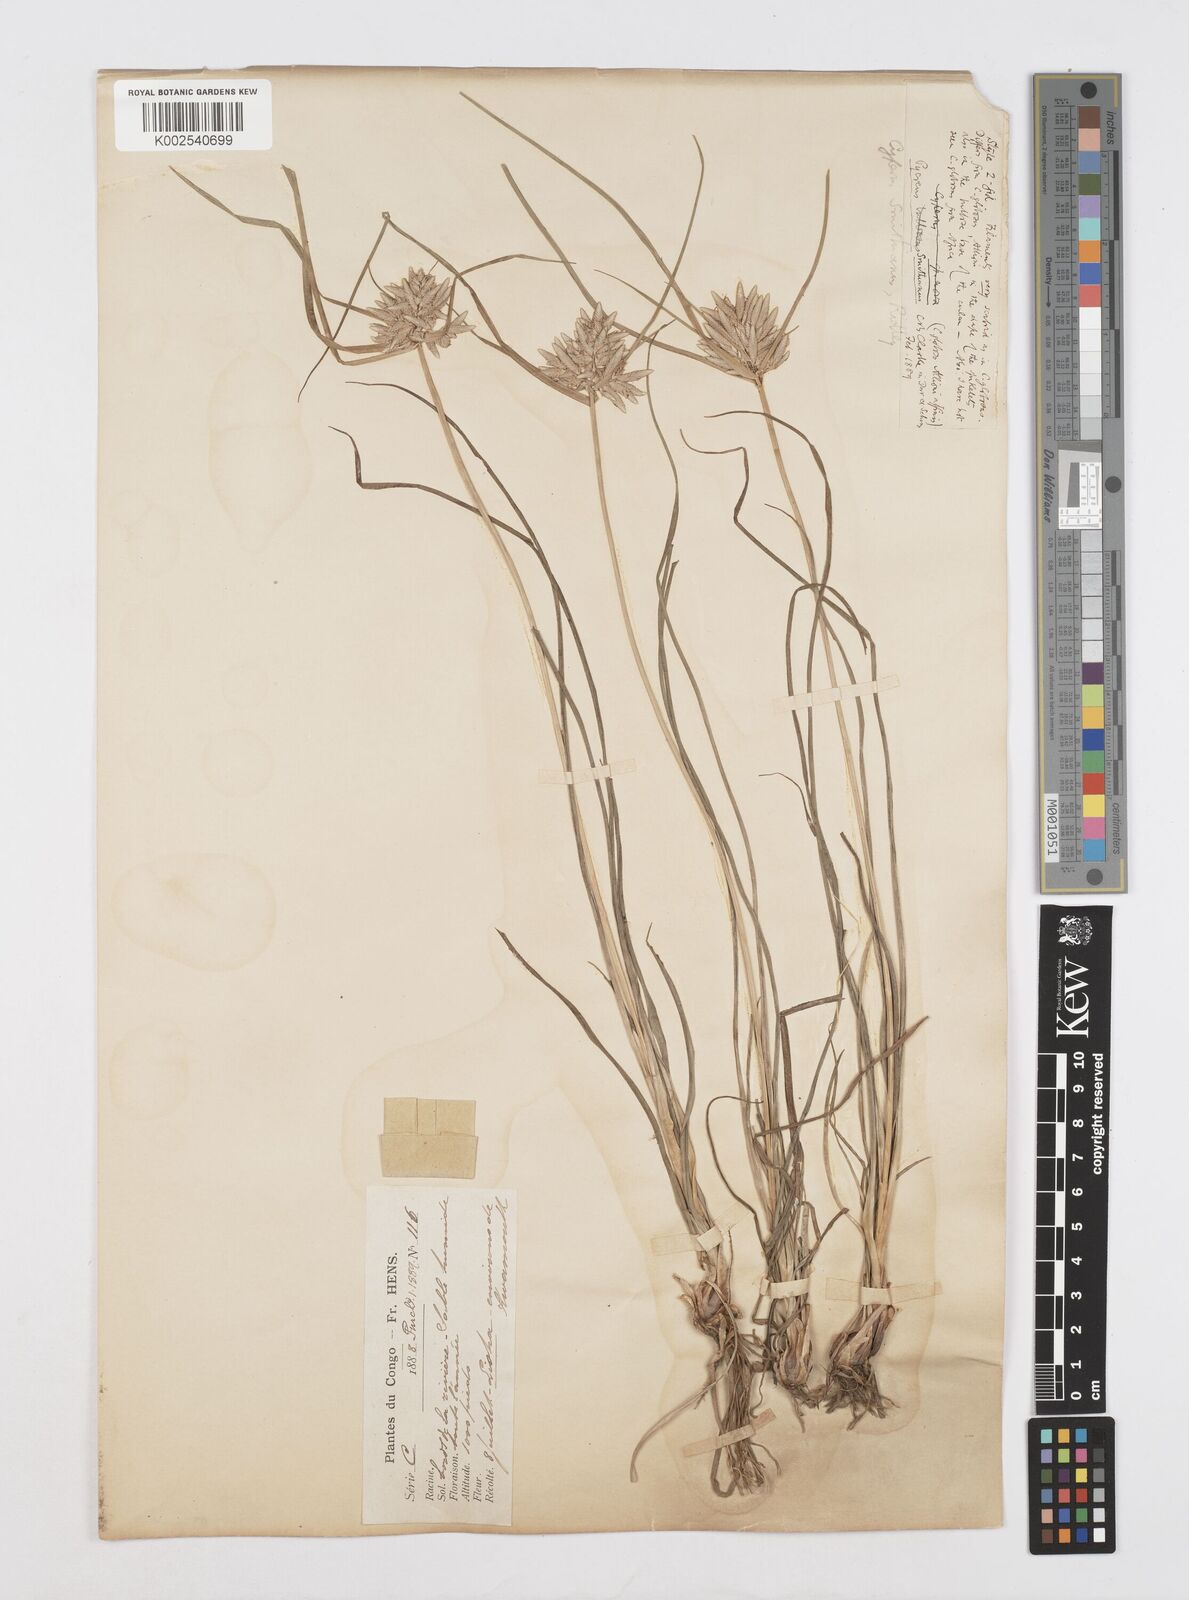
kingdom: Plantae
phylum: Tracheophyta
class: Liliopsida
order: Poales
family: Cyperaceae
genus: Cyperus
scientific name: Cyperus smithianus
